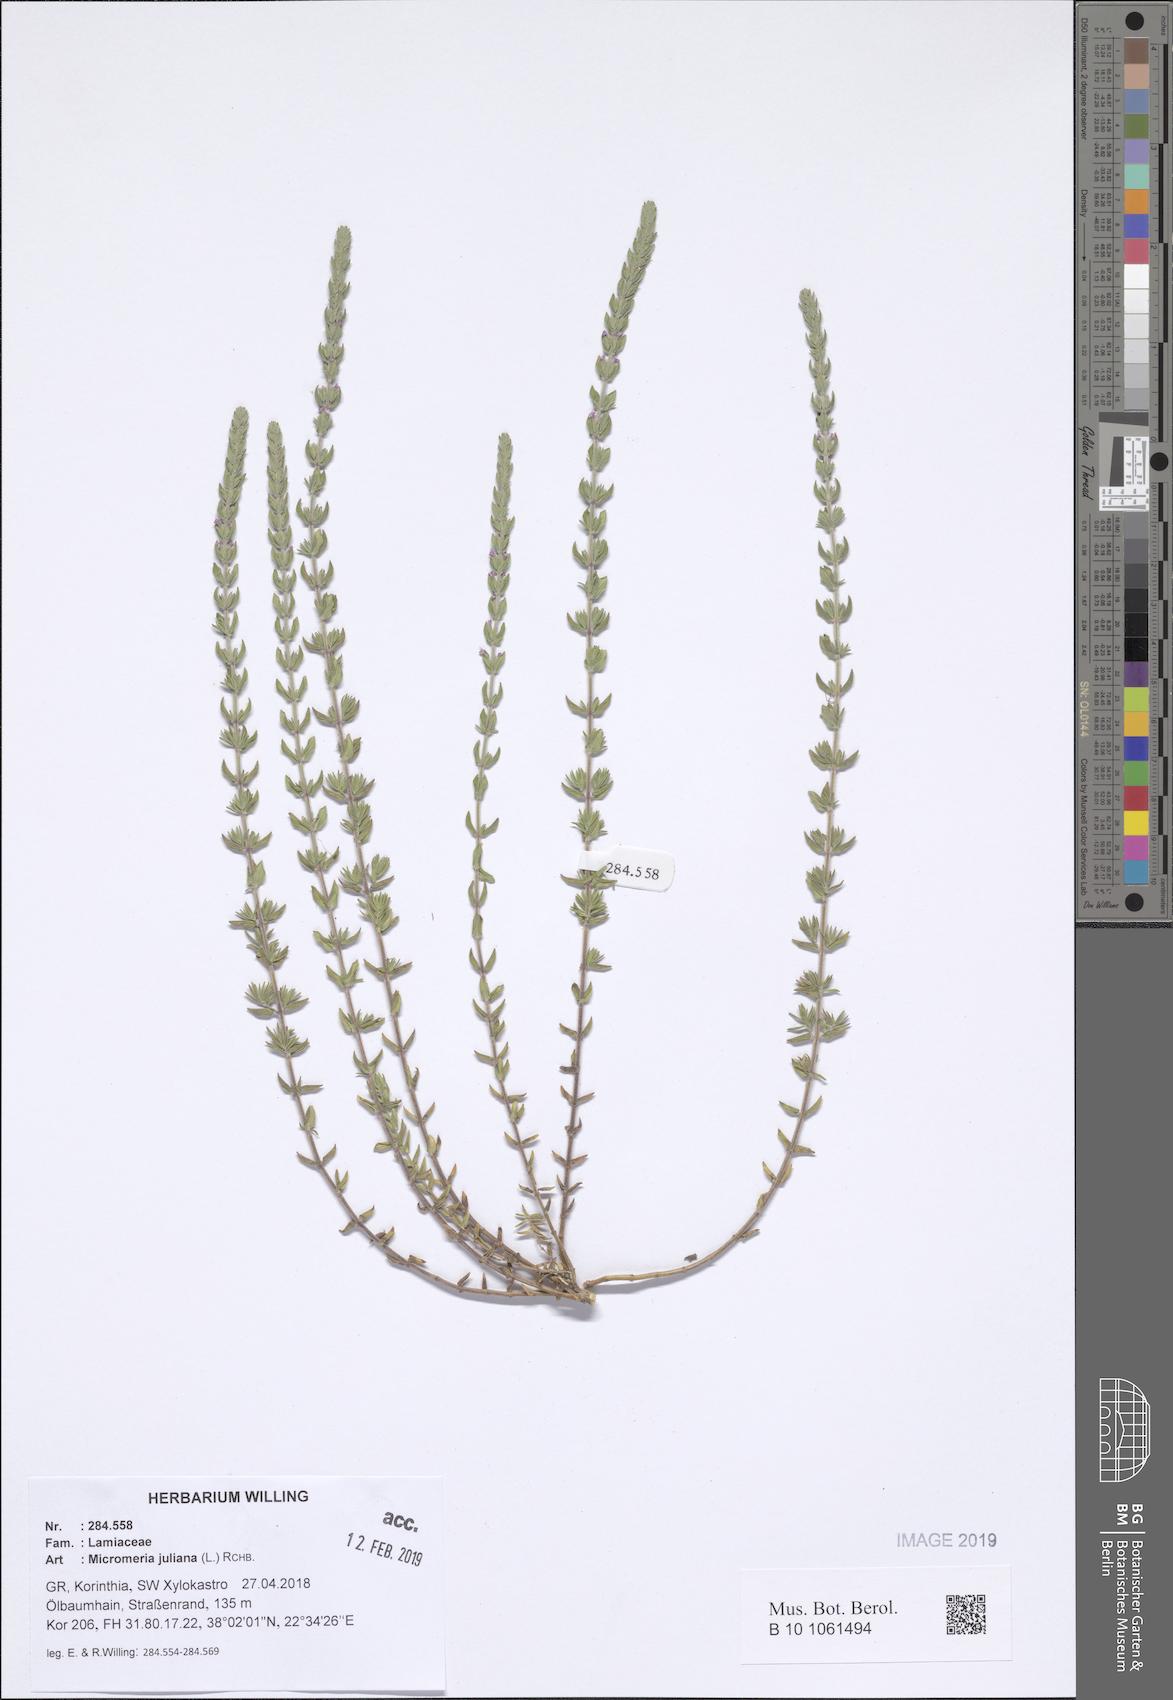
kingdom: Plantae
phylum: Tracheophyta
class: Magnoliopsida
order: Lamiales
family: Lamiaceae
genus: Micromeria
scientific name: Micromeria juliana
